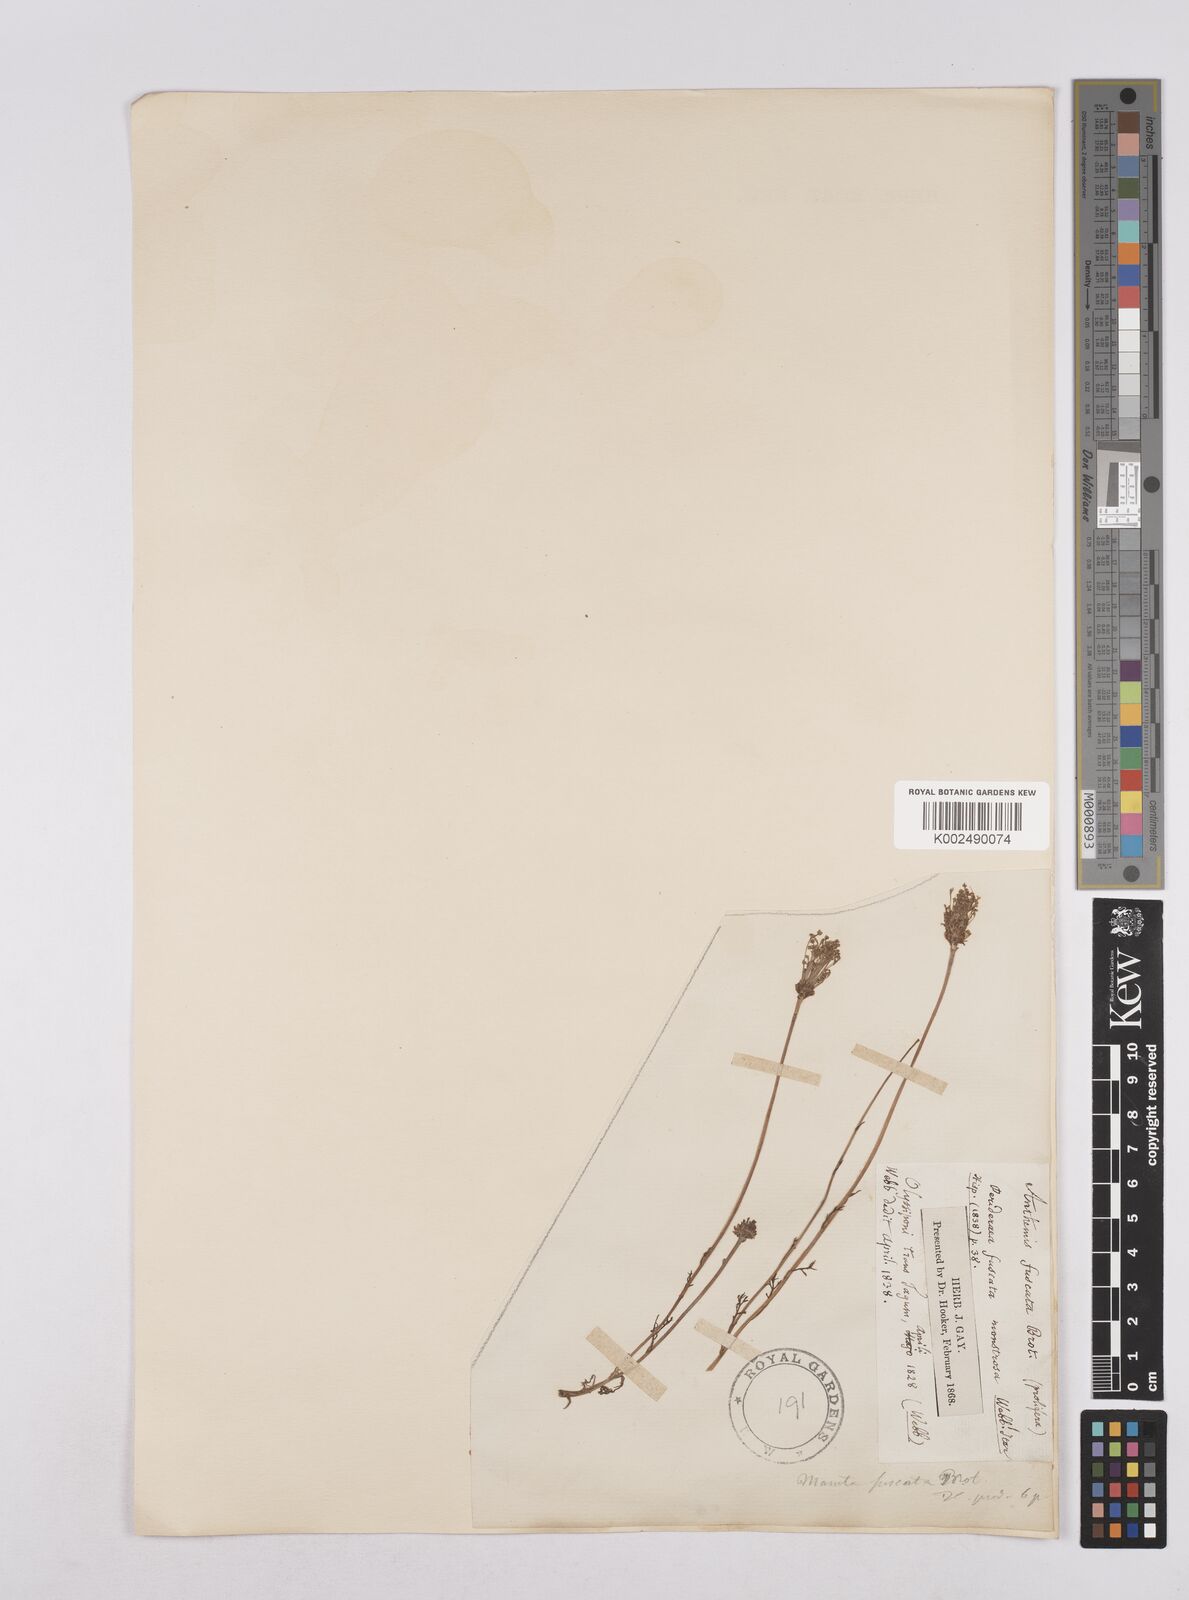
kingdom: Plantae
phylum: Tracheophyta
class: Magnoliopsida
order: Asterales
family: Asteraceae
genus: Chamaemelum
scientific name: Chamaemelum fuscatum
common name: Chamomile
